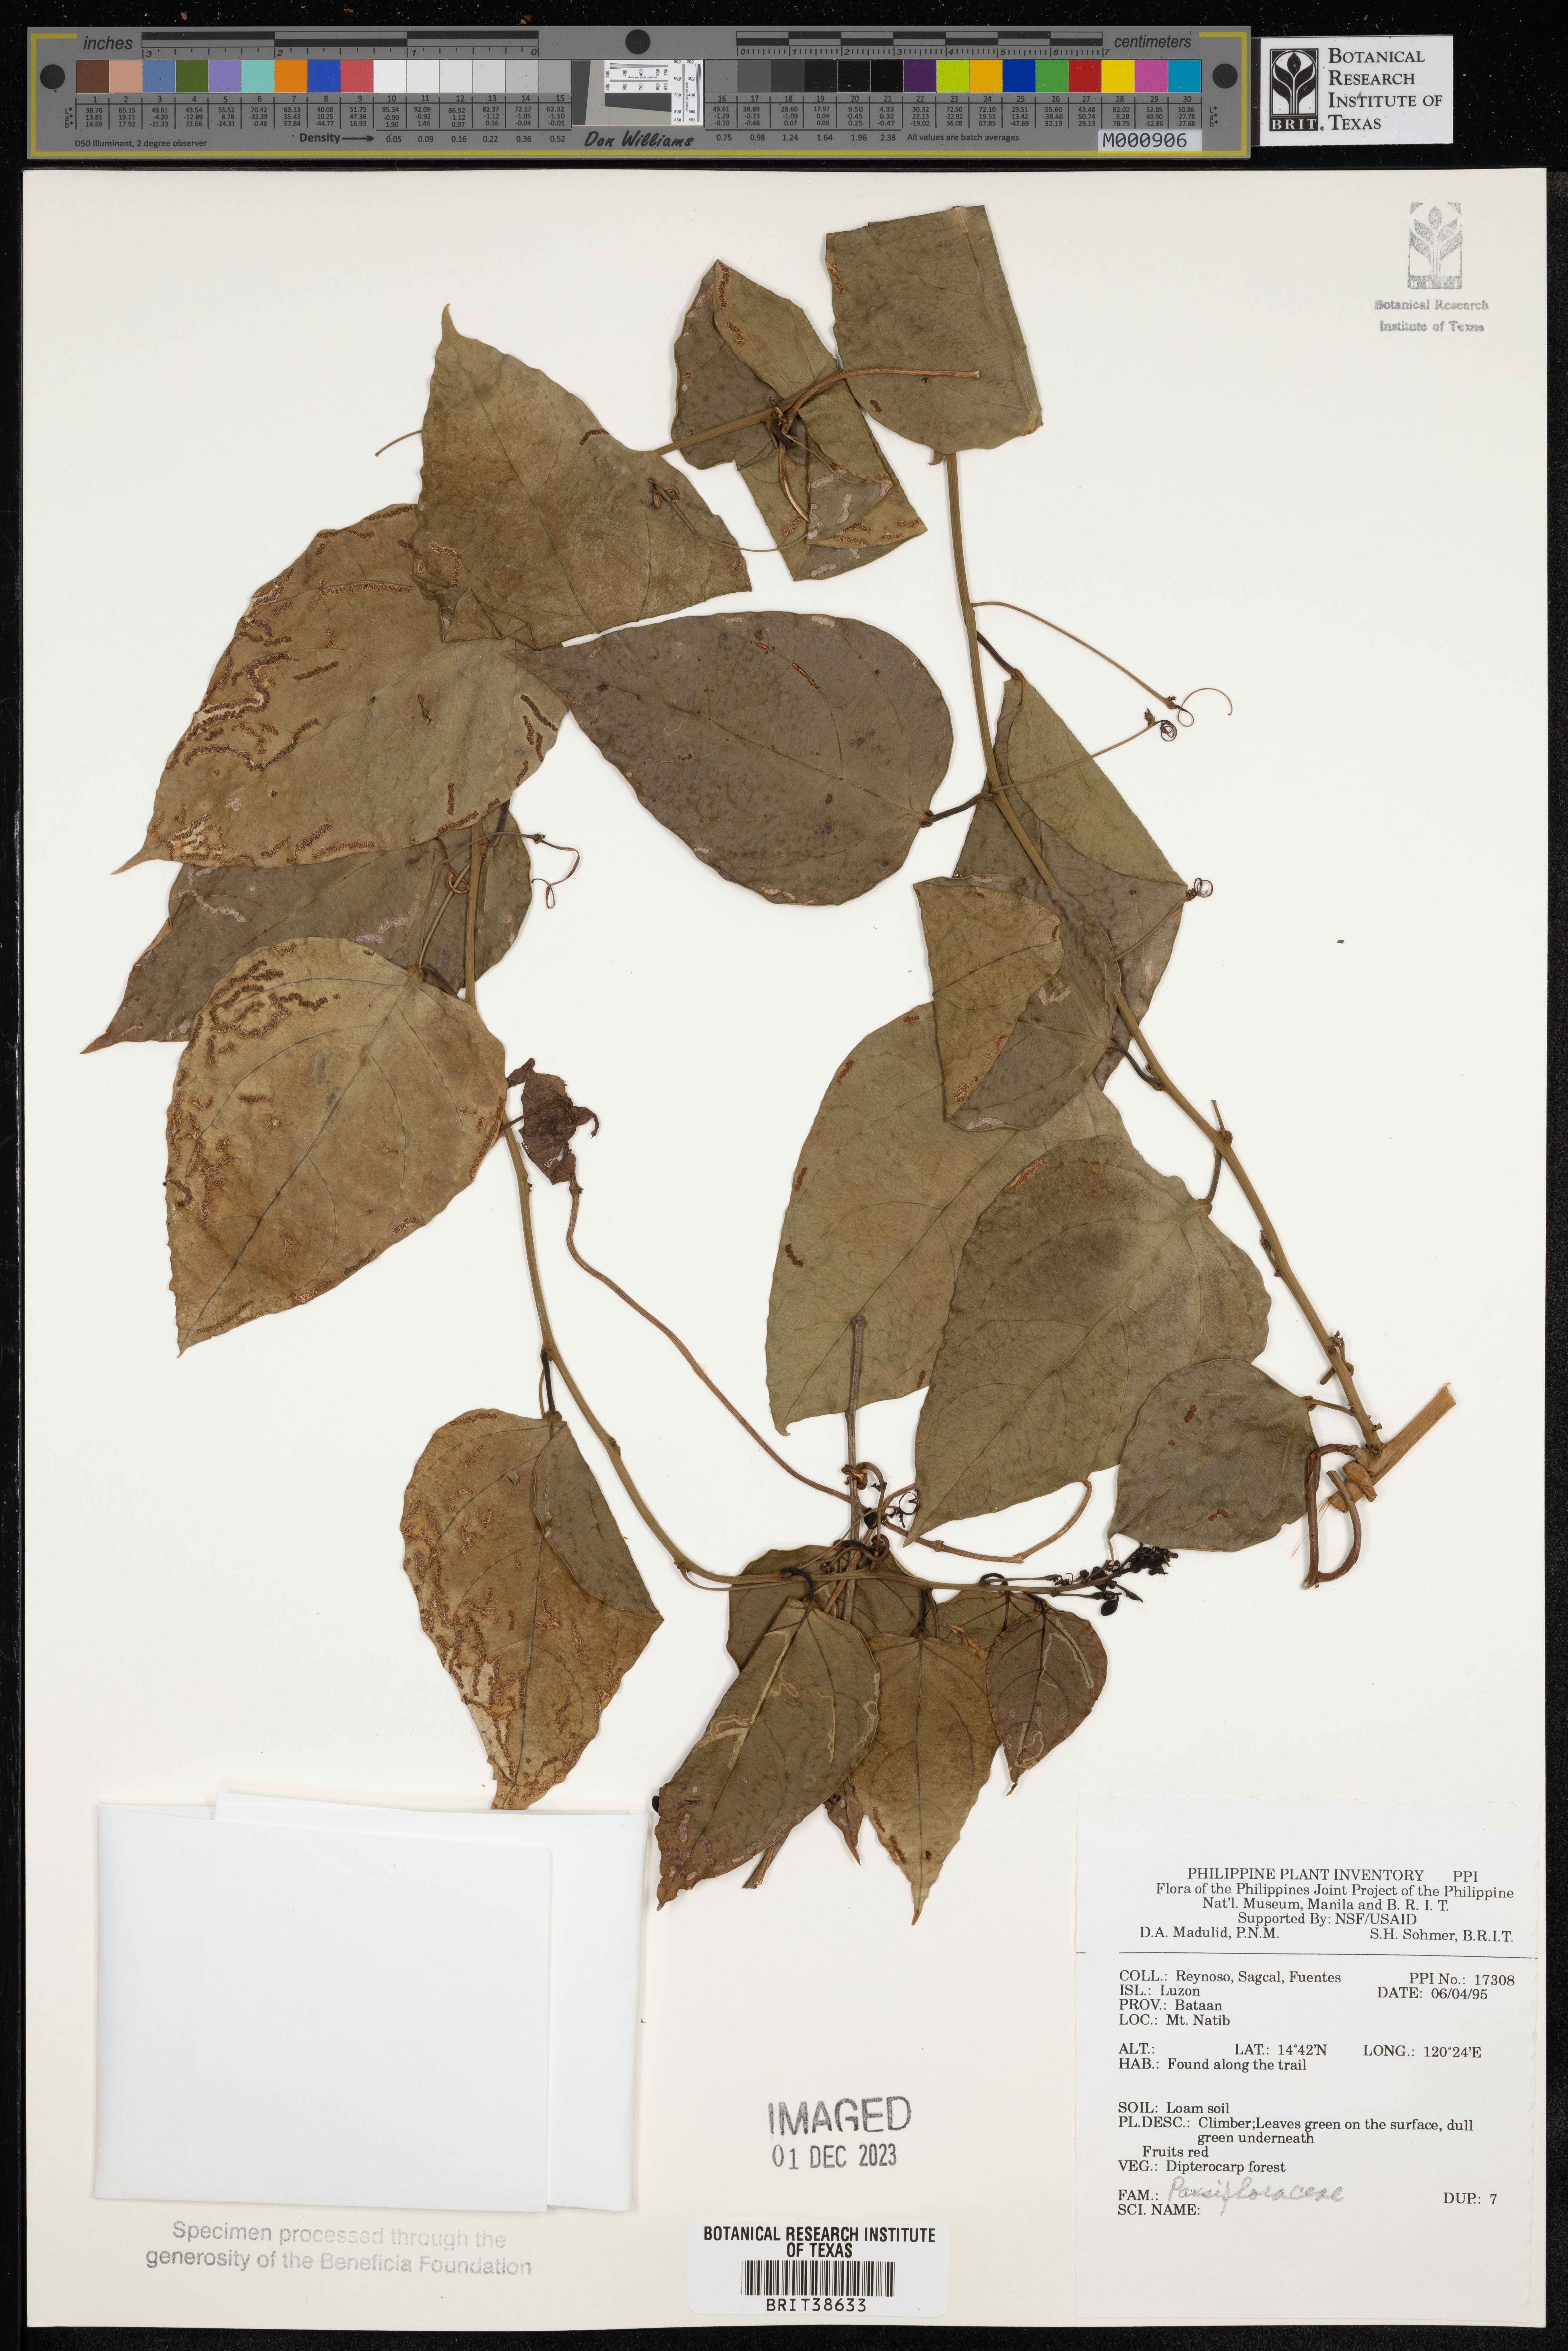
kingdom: Plantae
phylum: Tracheophyta
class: Magnoliopsida
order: Malpighiales
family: Passifloraceae
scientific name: Passifloraceae
